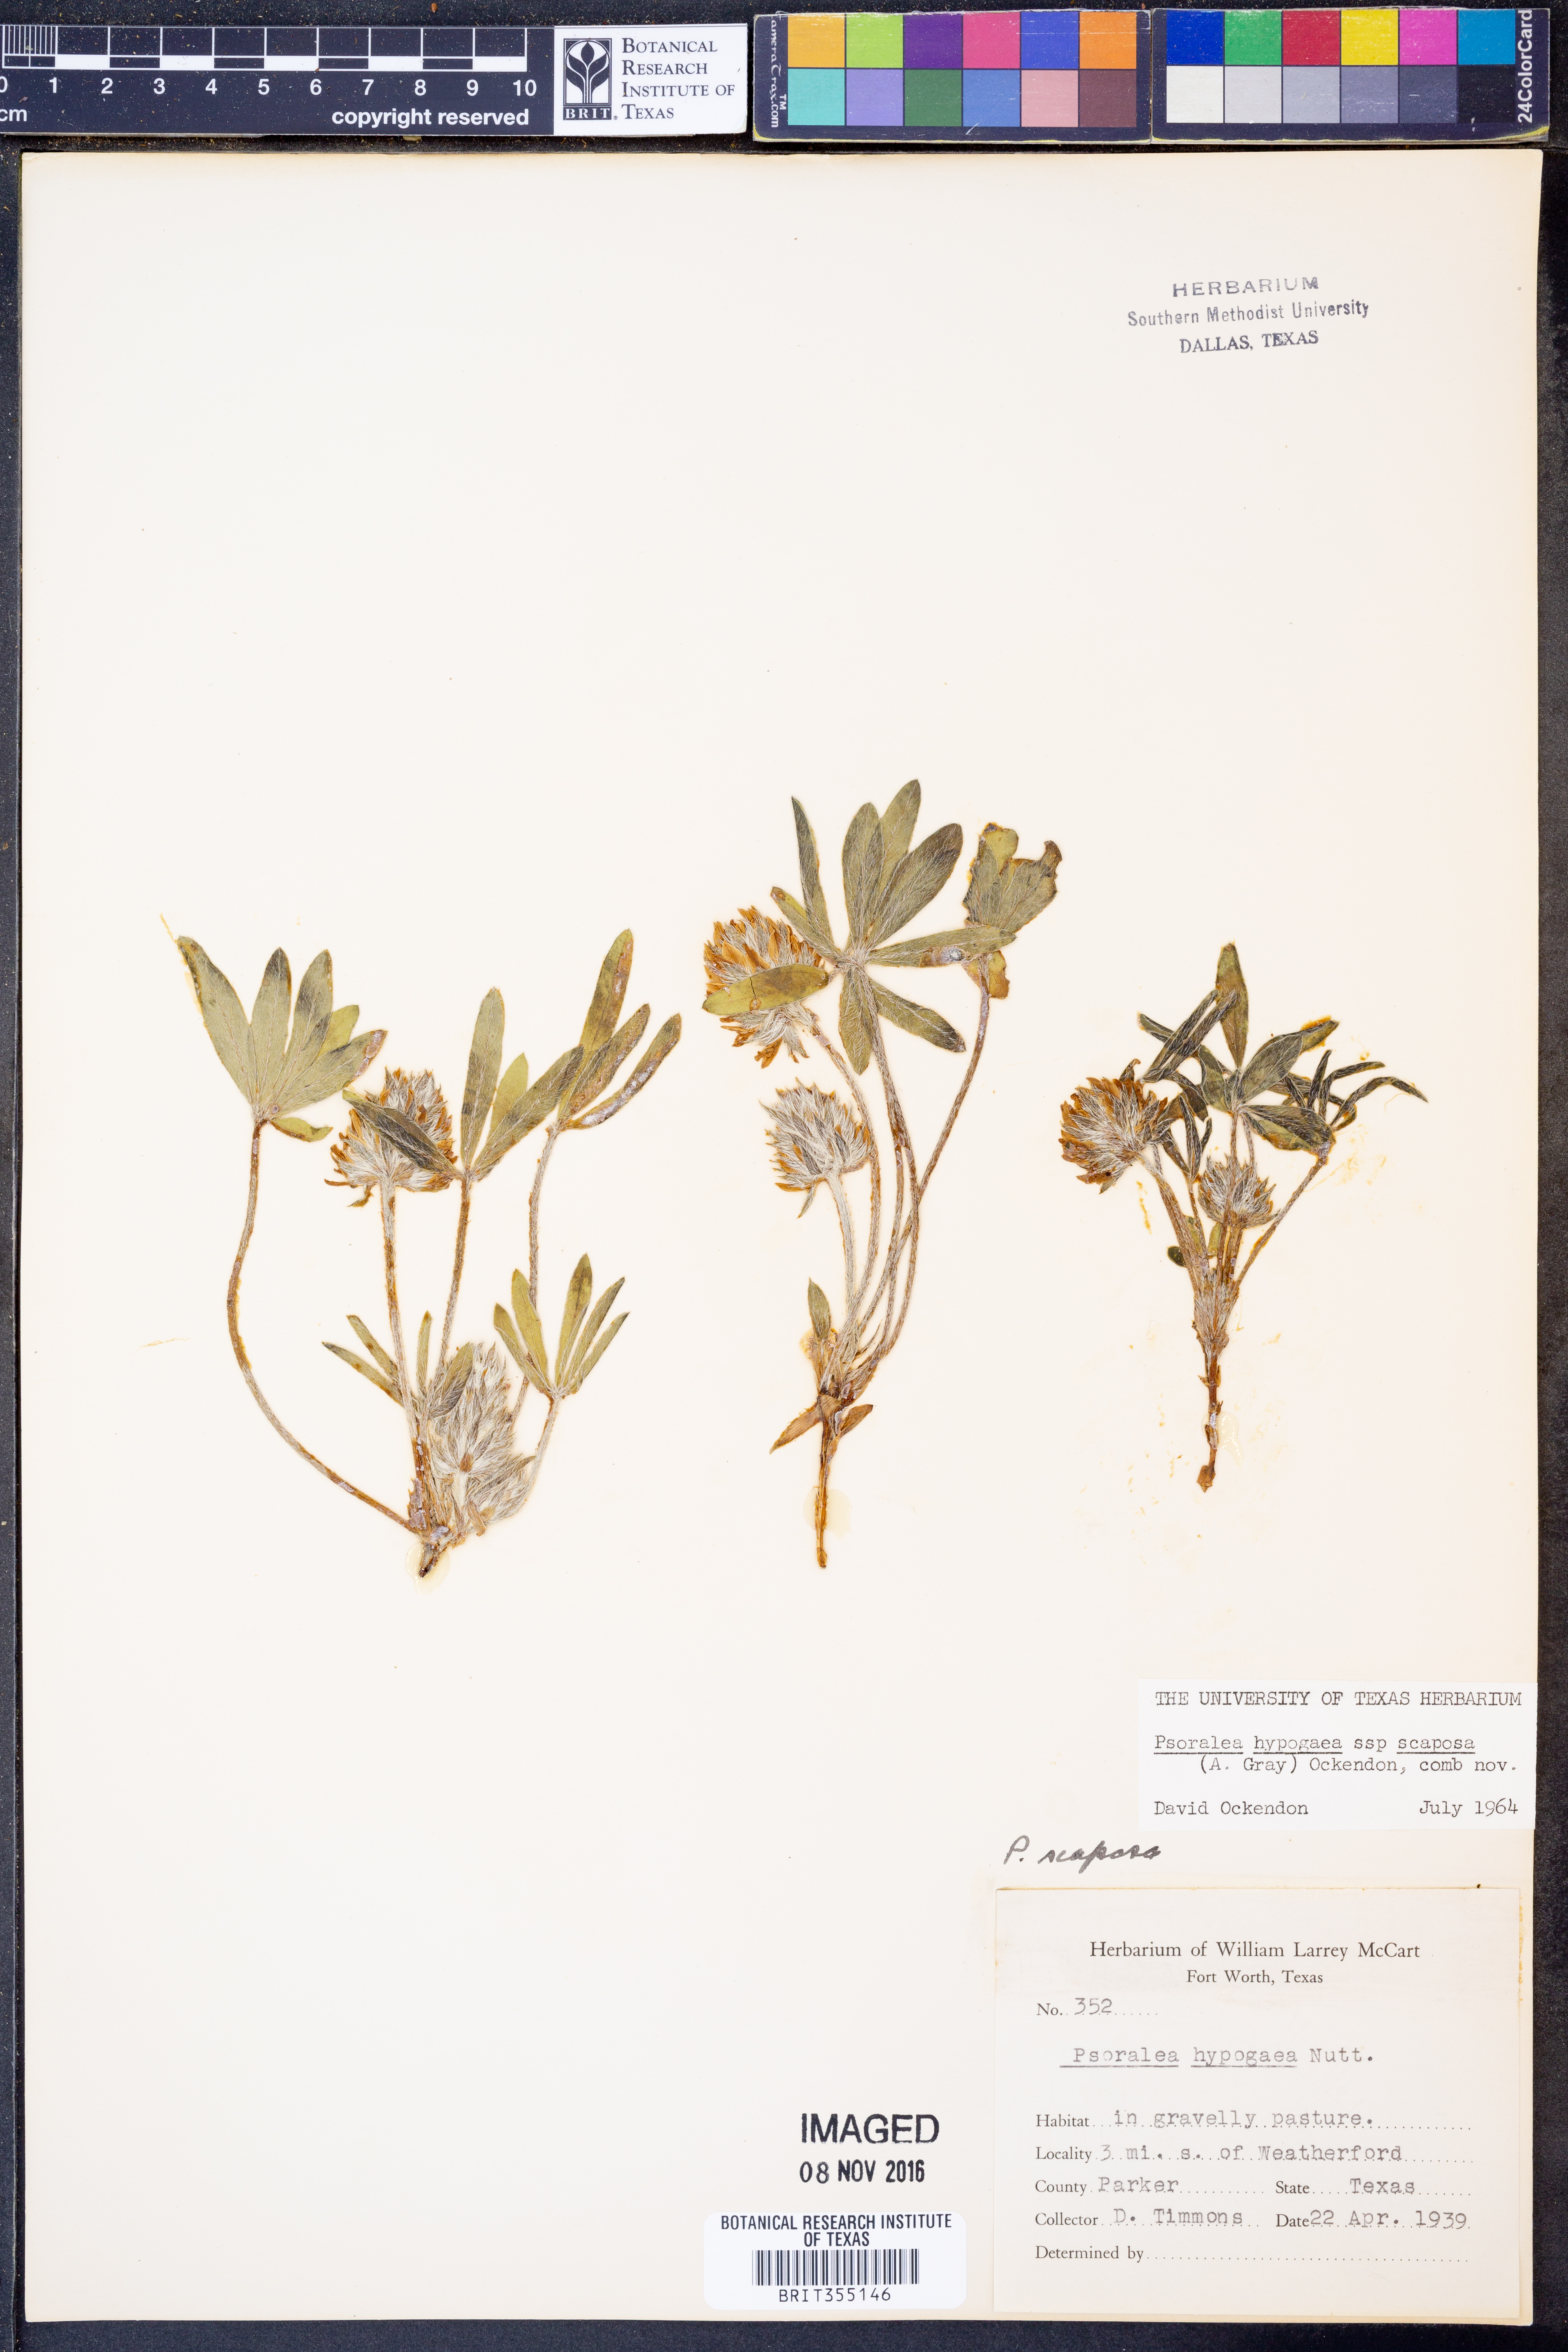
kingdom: Plantae
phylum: Tracheophyta
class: Magnoliopsida
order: Fabales
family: Fabaceae
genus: Pediomelum
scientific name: Pediomelum hypogaeum
